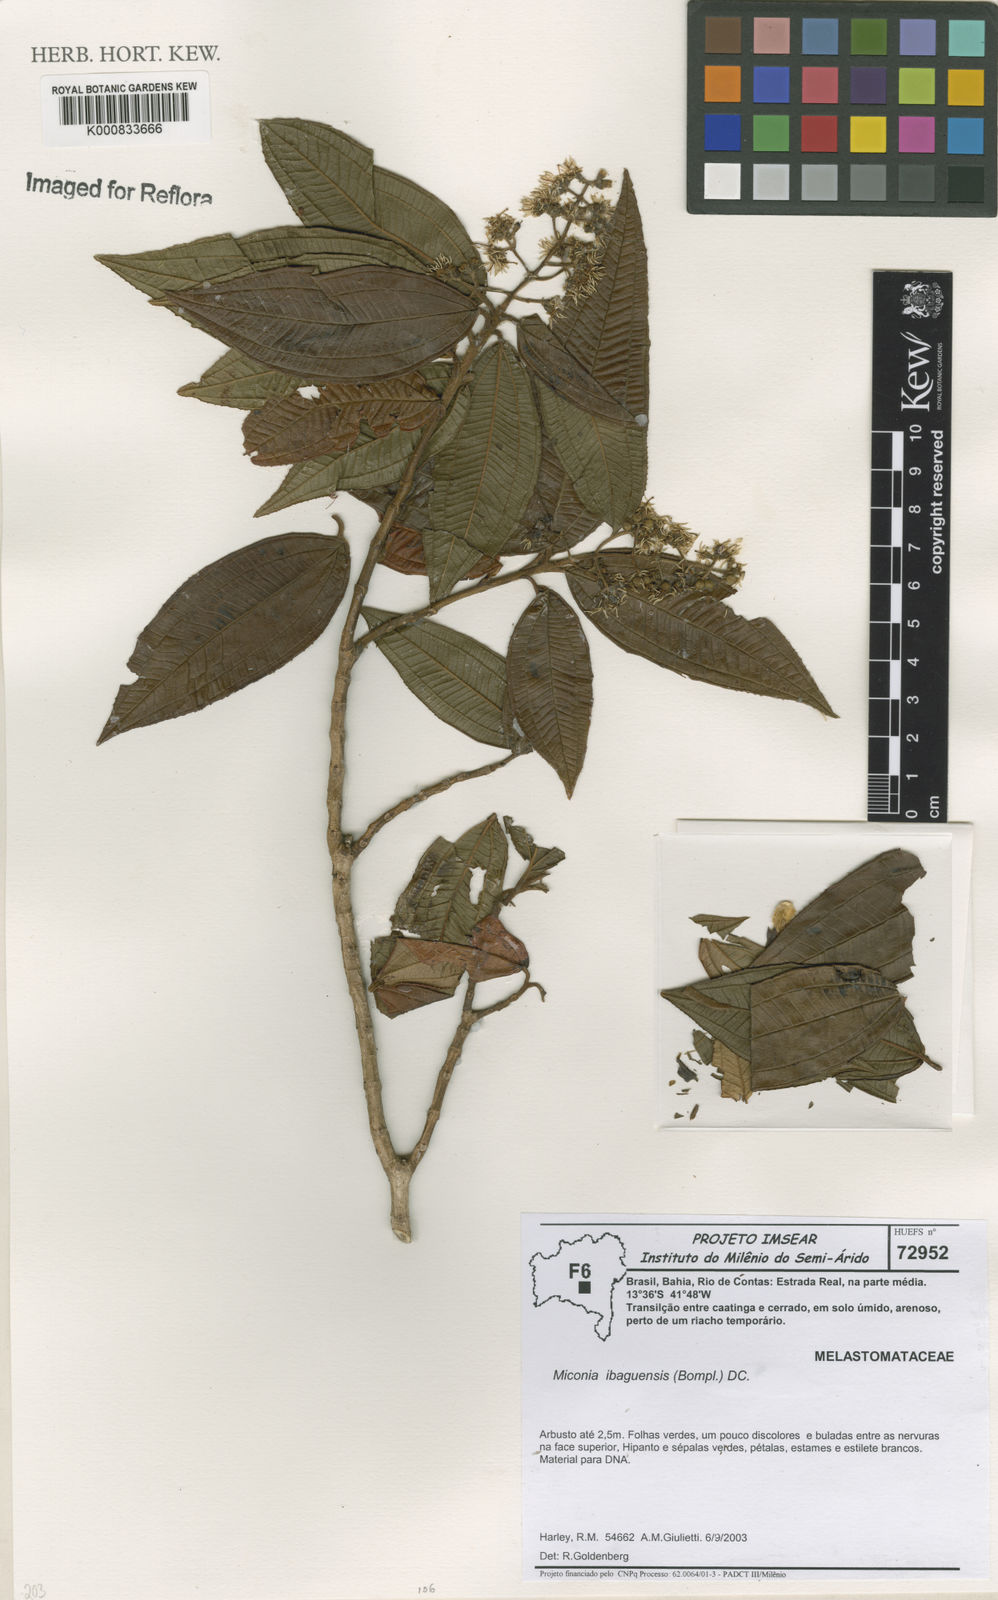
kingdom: Plantae
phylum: Tracheophyta
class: Magnoliopsida
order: Myrtales
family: Melastomataceae
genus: Miconia
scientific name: Miconia ibaguensis
